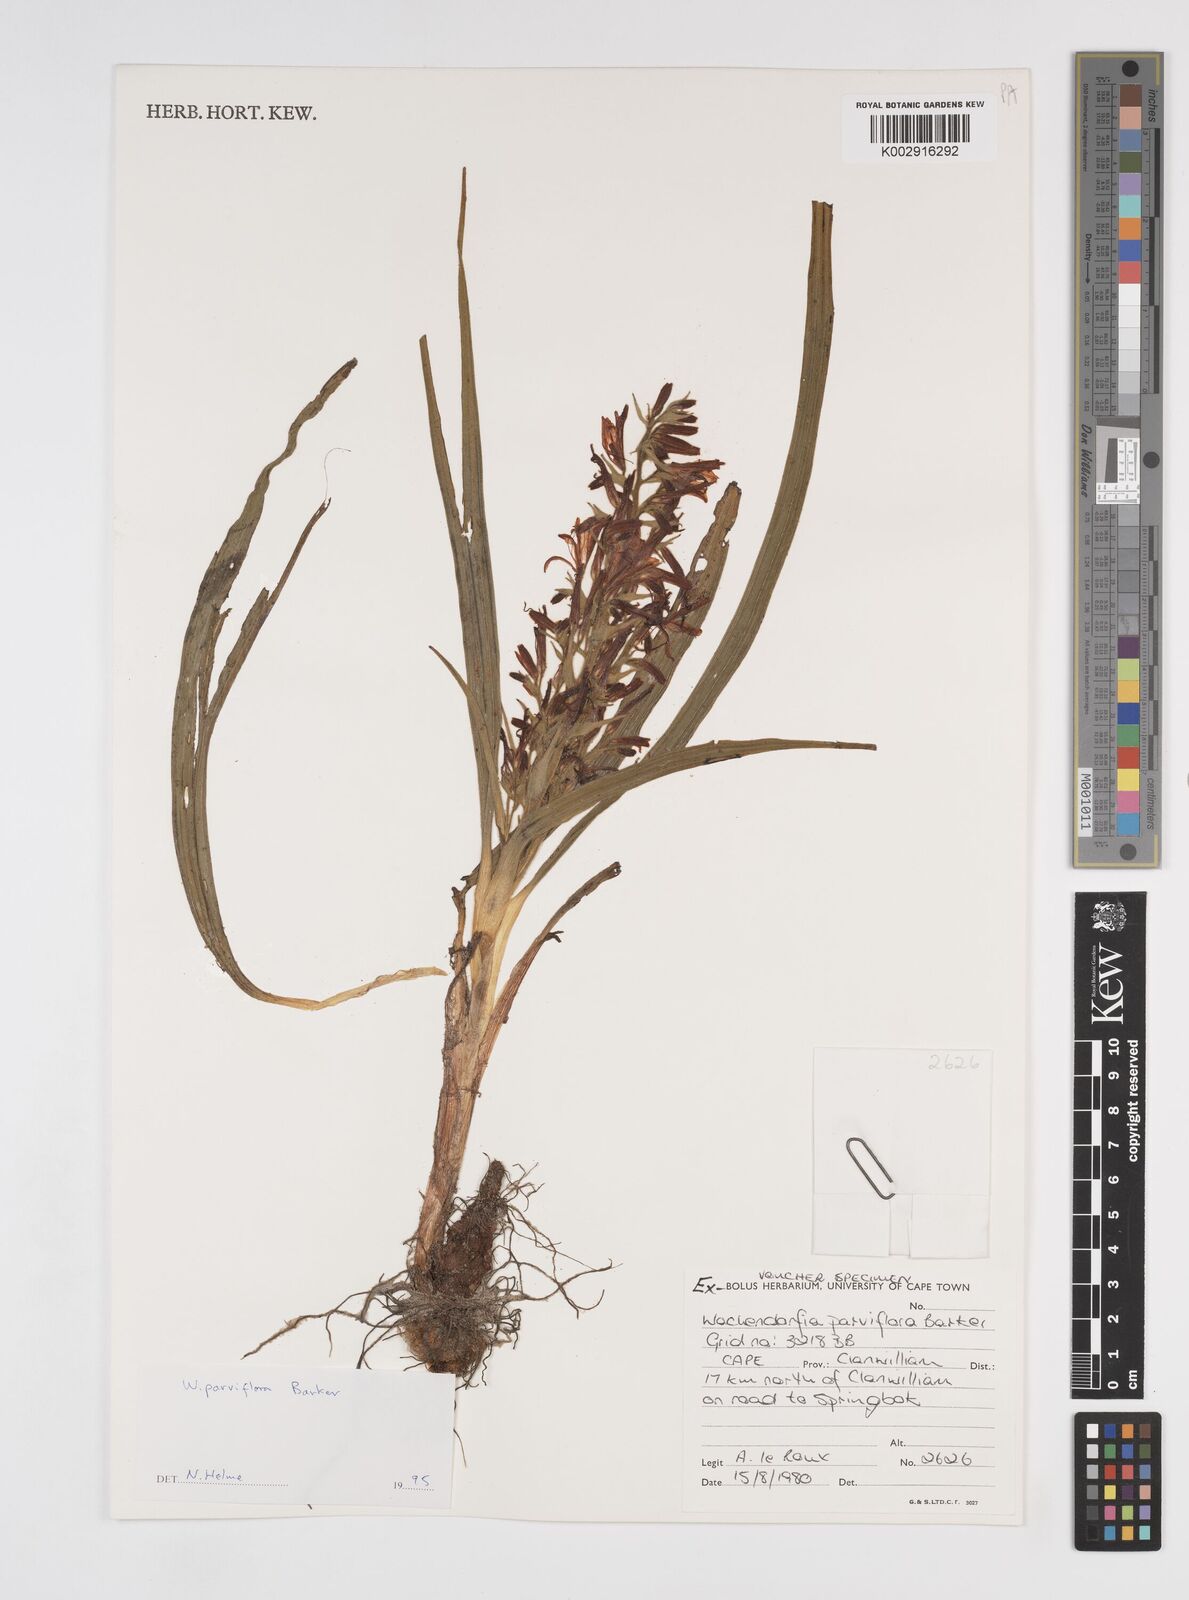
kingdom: Plantae
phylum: Tracheophyta
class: Liliopsida
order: Commelinales
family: Haemodoraceae
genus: Wachendorfia
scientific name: Wachendorfia multiflora
